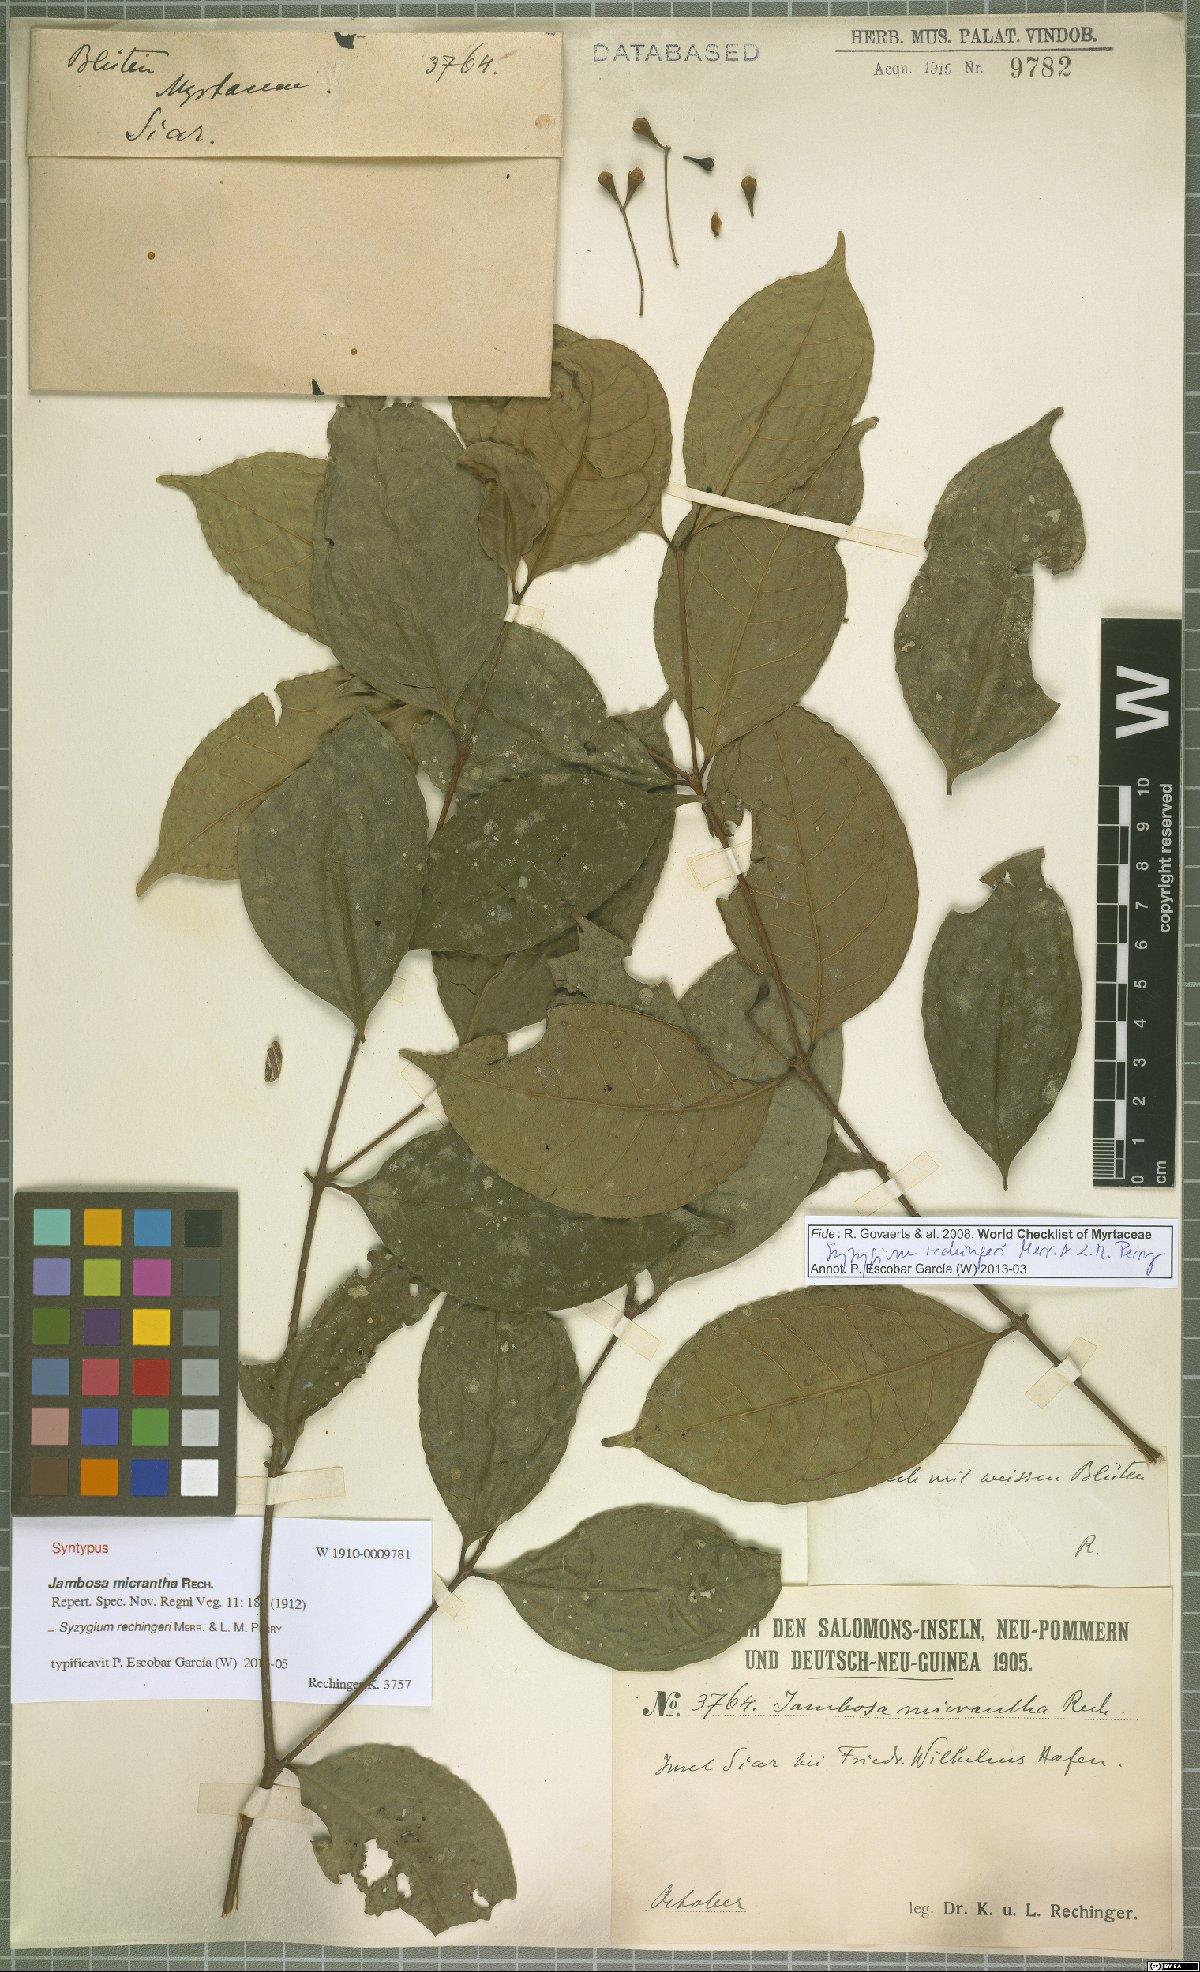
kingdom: Plantae
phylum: Tracheophyta
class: Magnoliopsida
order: Myrtales
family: Myrtaceae
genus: Syzygium
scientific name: Syzygium rechingeri
